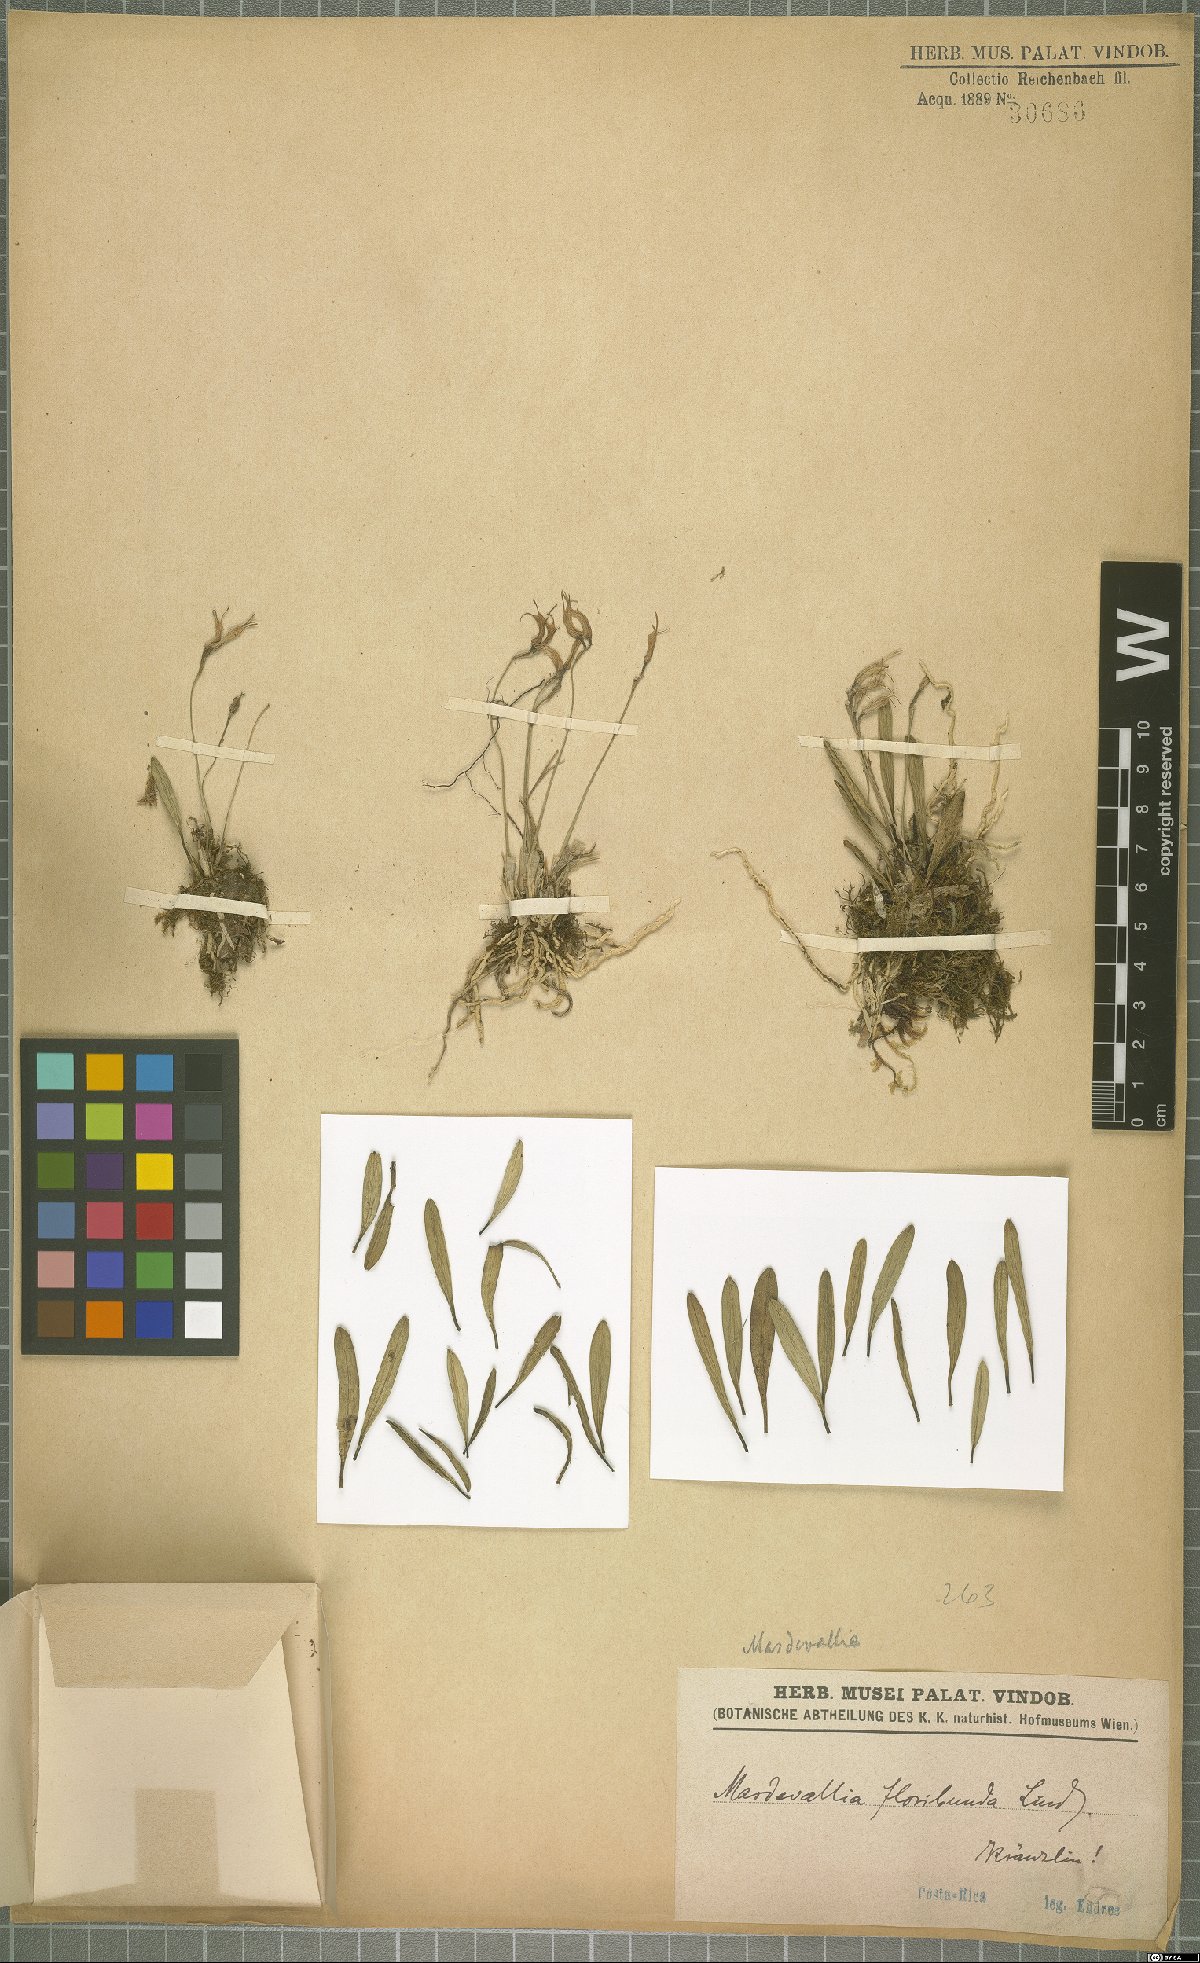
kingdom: Plantae
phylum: Tracheophyta
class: Liliopsida
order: Asparagales
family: Orchidaceae
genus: Masdevallia
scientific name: Masdevallia floribunda
